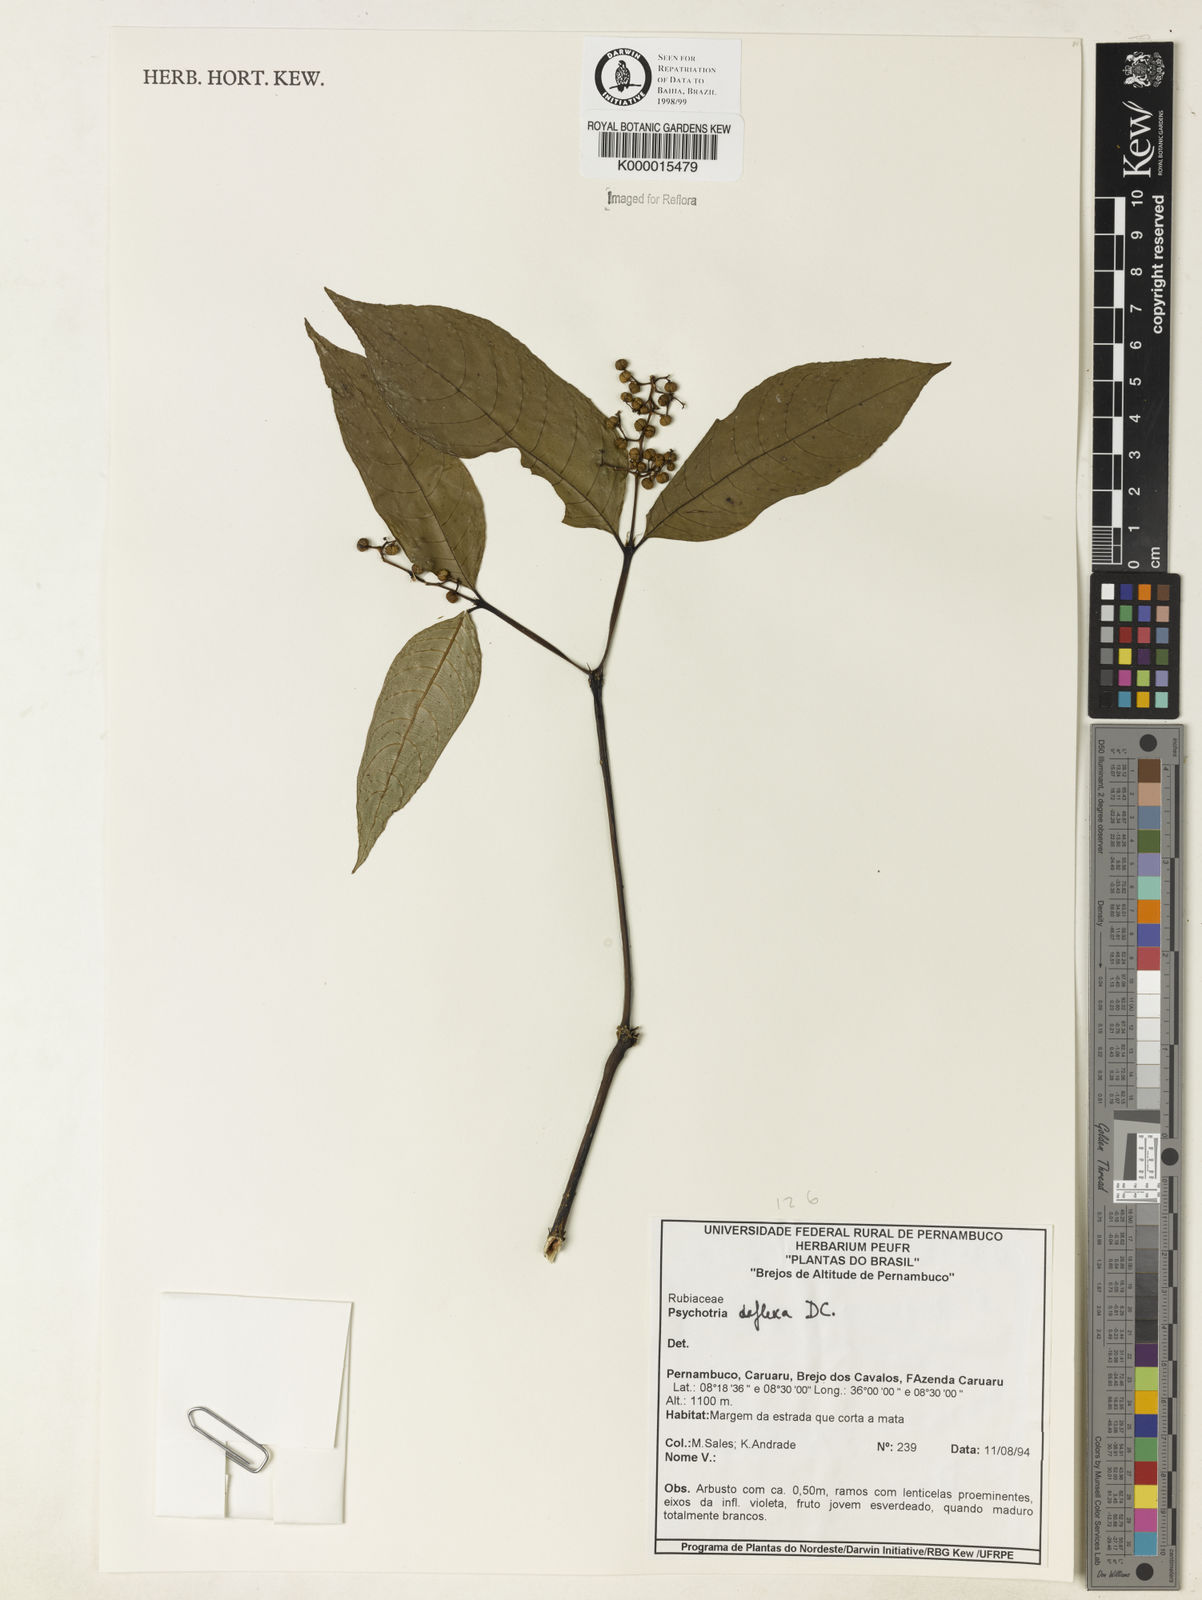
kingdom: Plantae
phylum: Tracheophyta
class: Magnoliopsida
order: Gentianales
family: Rubiaceae
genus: Palicourea
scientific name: Palicourea deflexa
